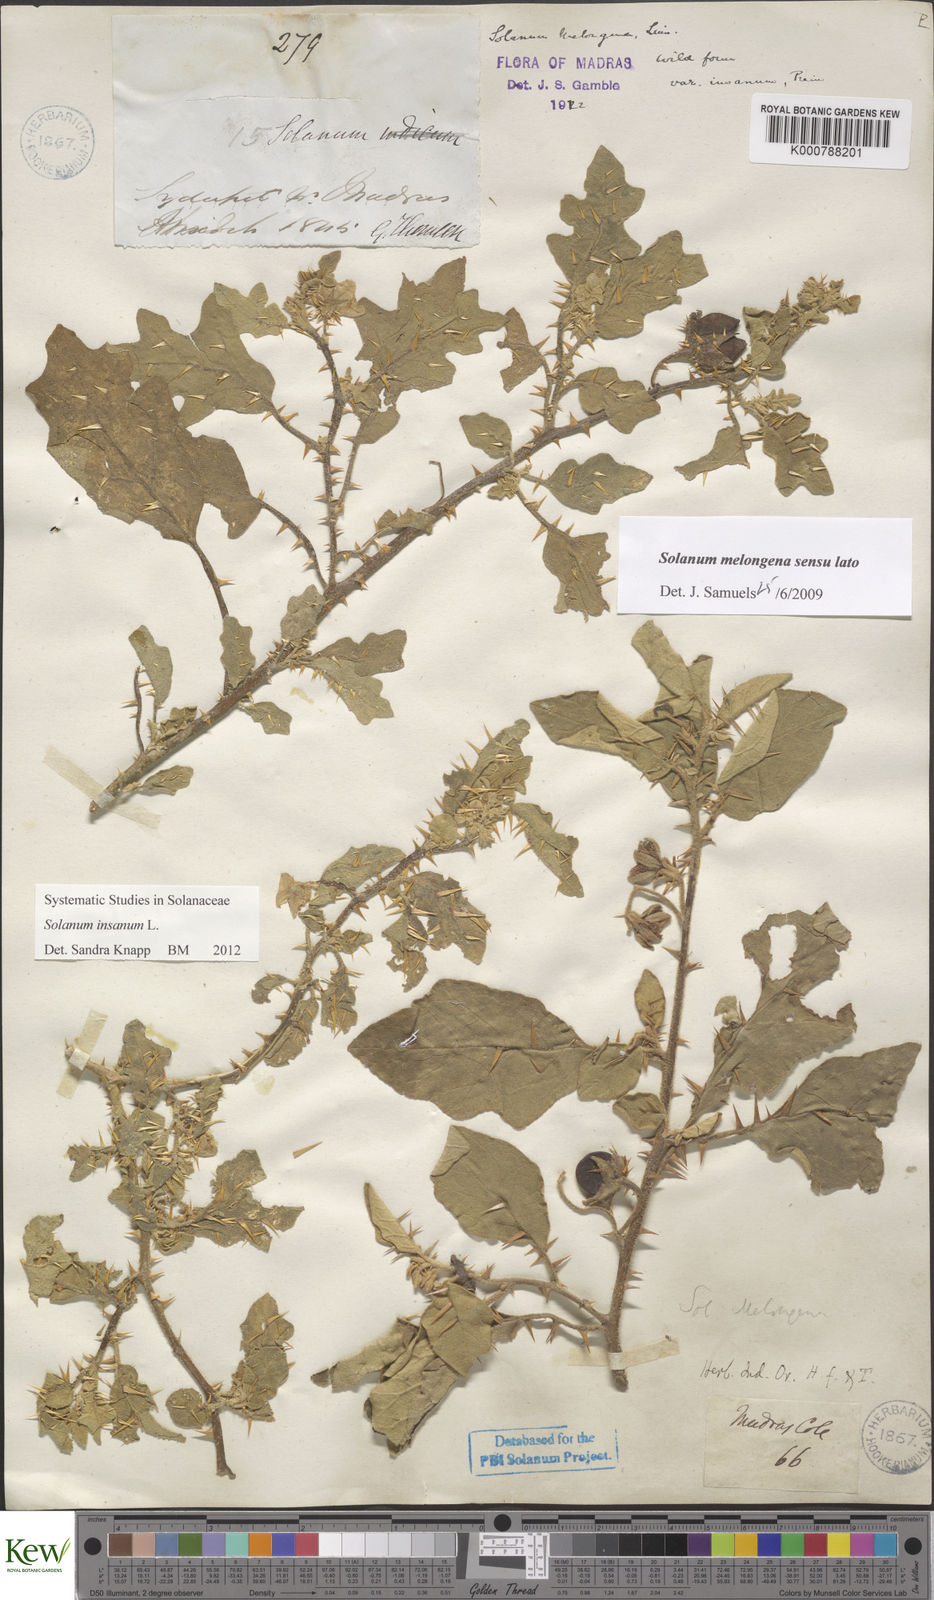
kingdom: Plantae
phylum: Tracheophyta
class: Magnoliopsida
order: Solanales
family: Solanaceae
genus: Solanum
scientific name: Solanum insanum
